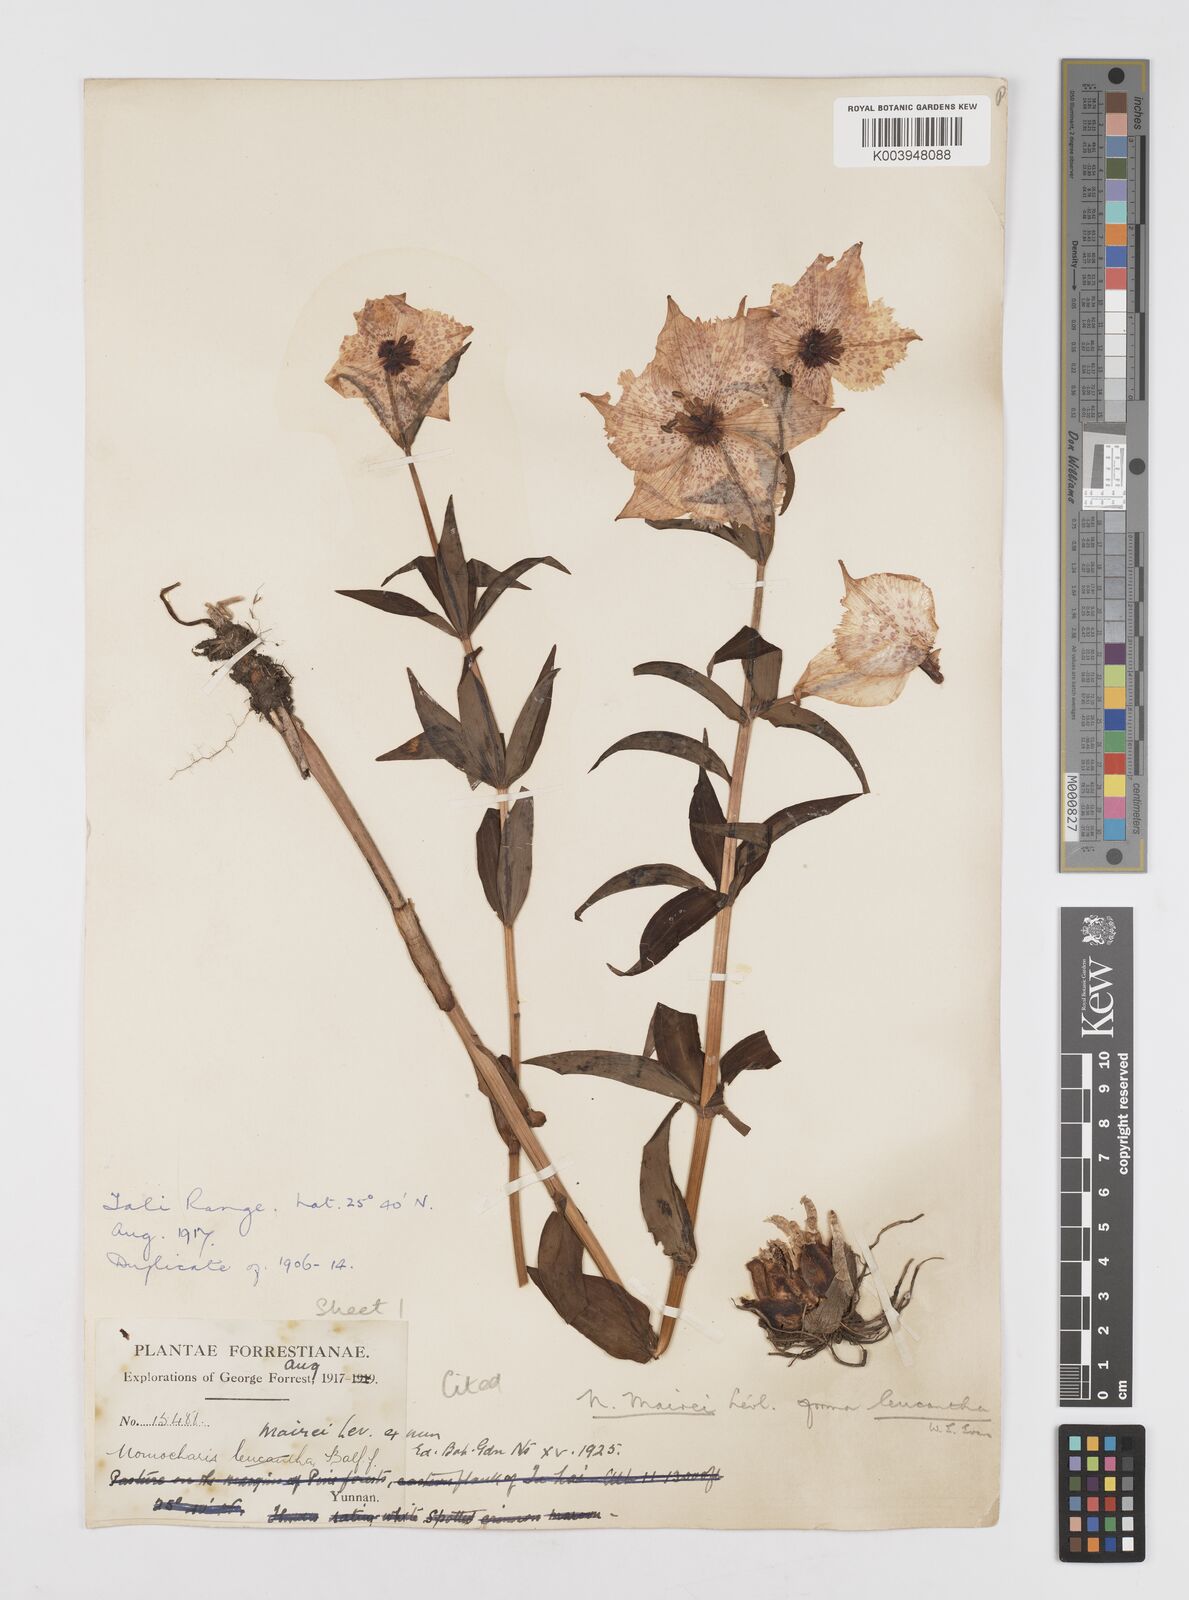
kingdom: Plantae
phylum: Tracheophyta
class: Liliopsida
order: Liliales
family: Liliaceae
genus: Lilium
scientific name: Lilium pardanthinum
